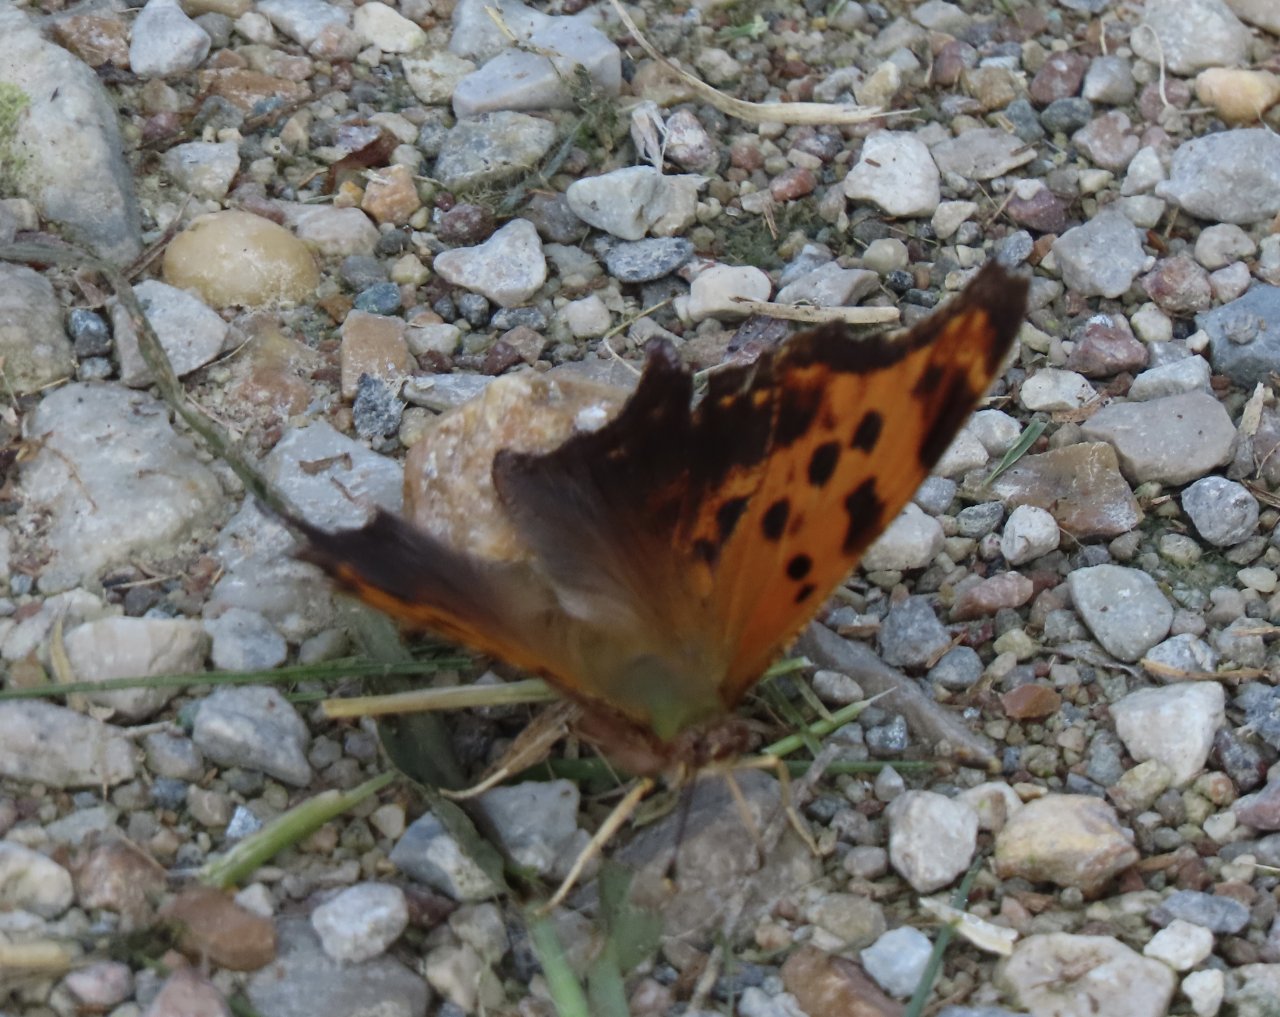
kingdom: Animalia
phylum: Arthropoda
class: Insecta
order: Lepidoptera
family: Nymphalidae
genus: Polygonia
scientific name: Polygonia comma
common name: Eastern Comma
